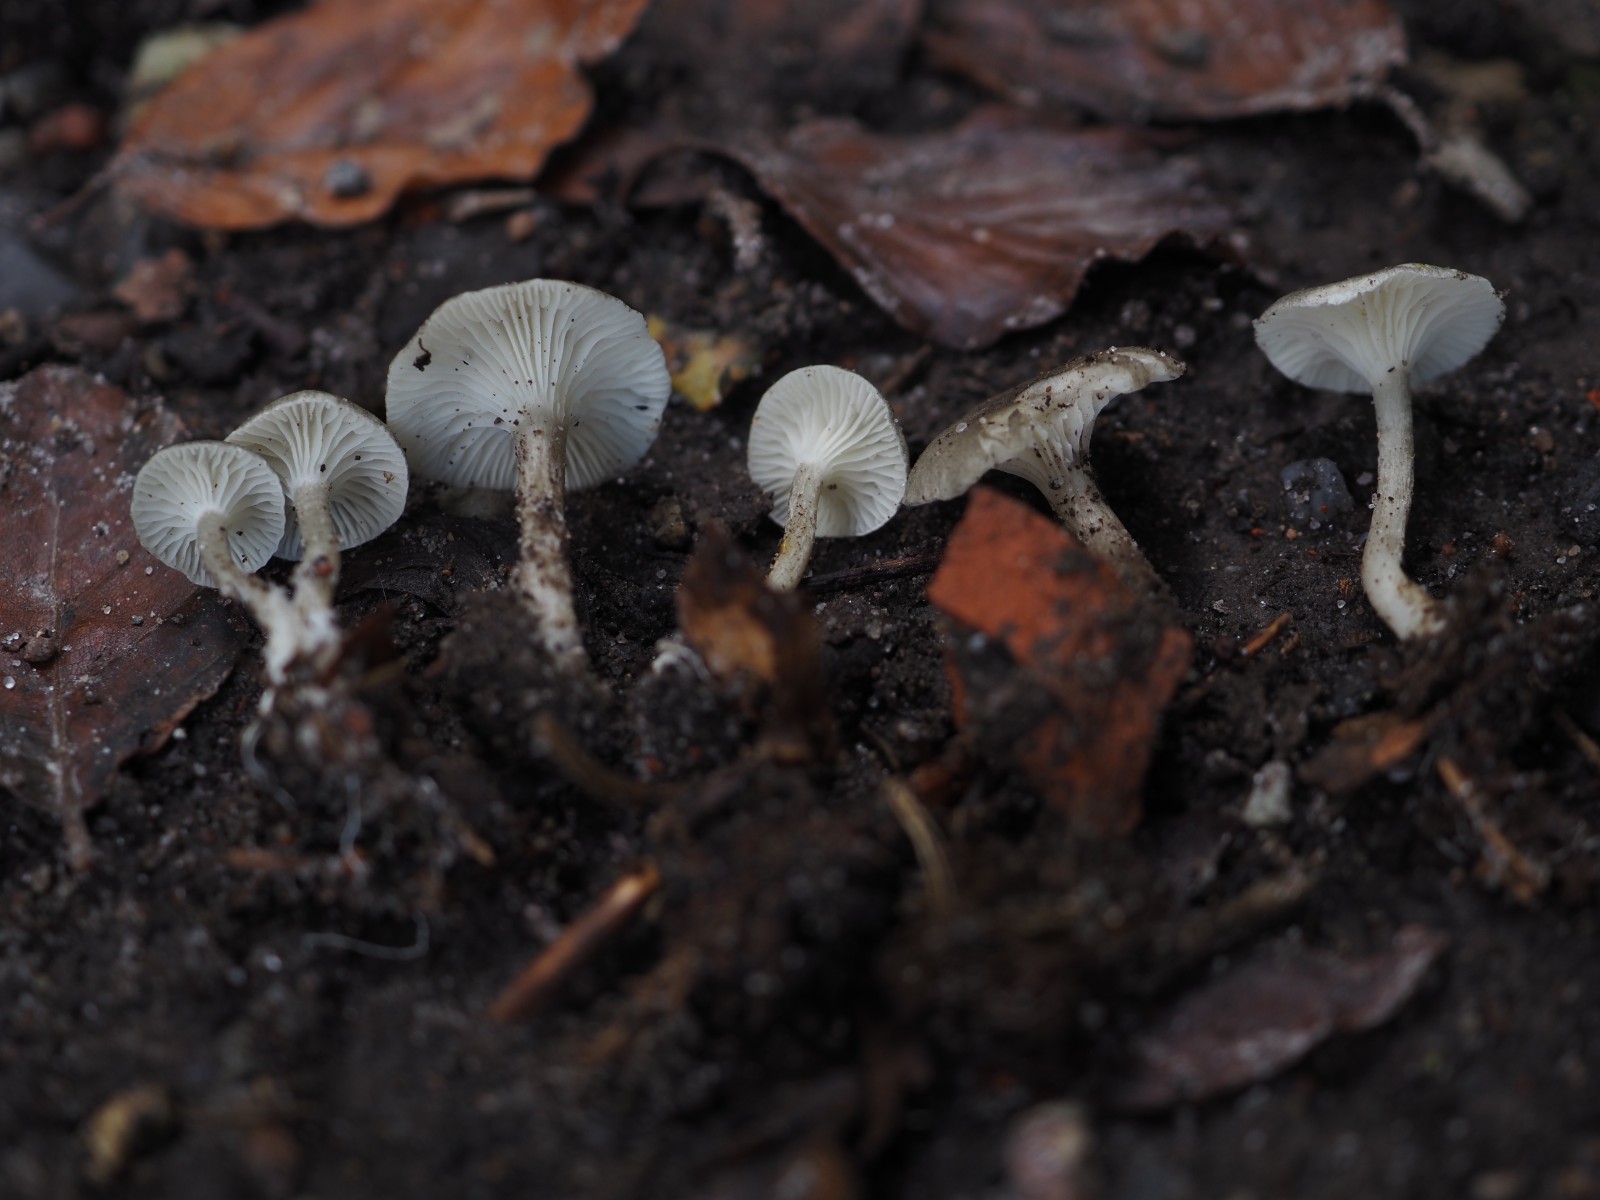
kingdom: Fungi
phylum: Basidiomycota
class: Agaricomycetes
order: Agaricales
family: Hygrophoraceae
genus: Spodocybe
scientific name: Spodocybe trulliformis
